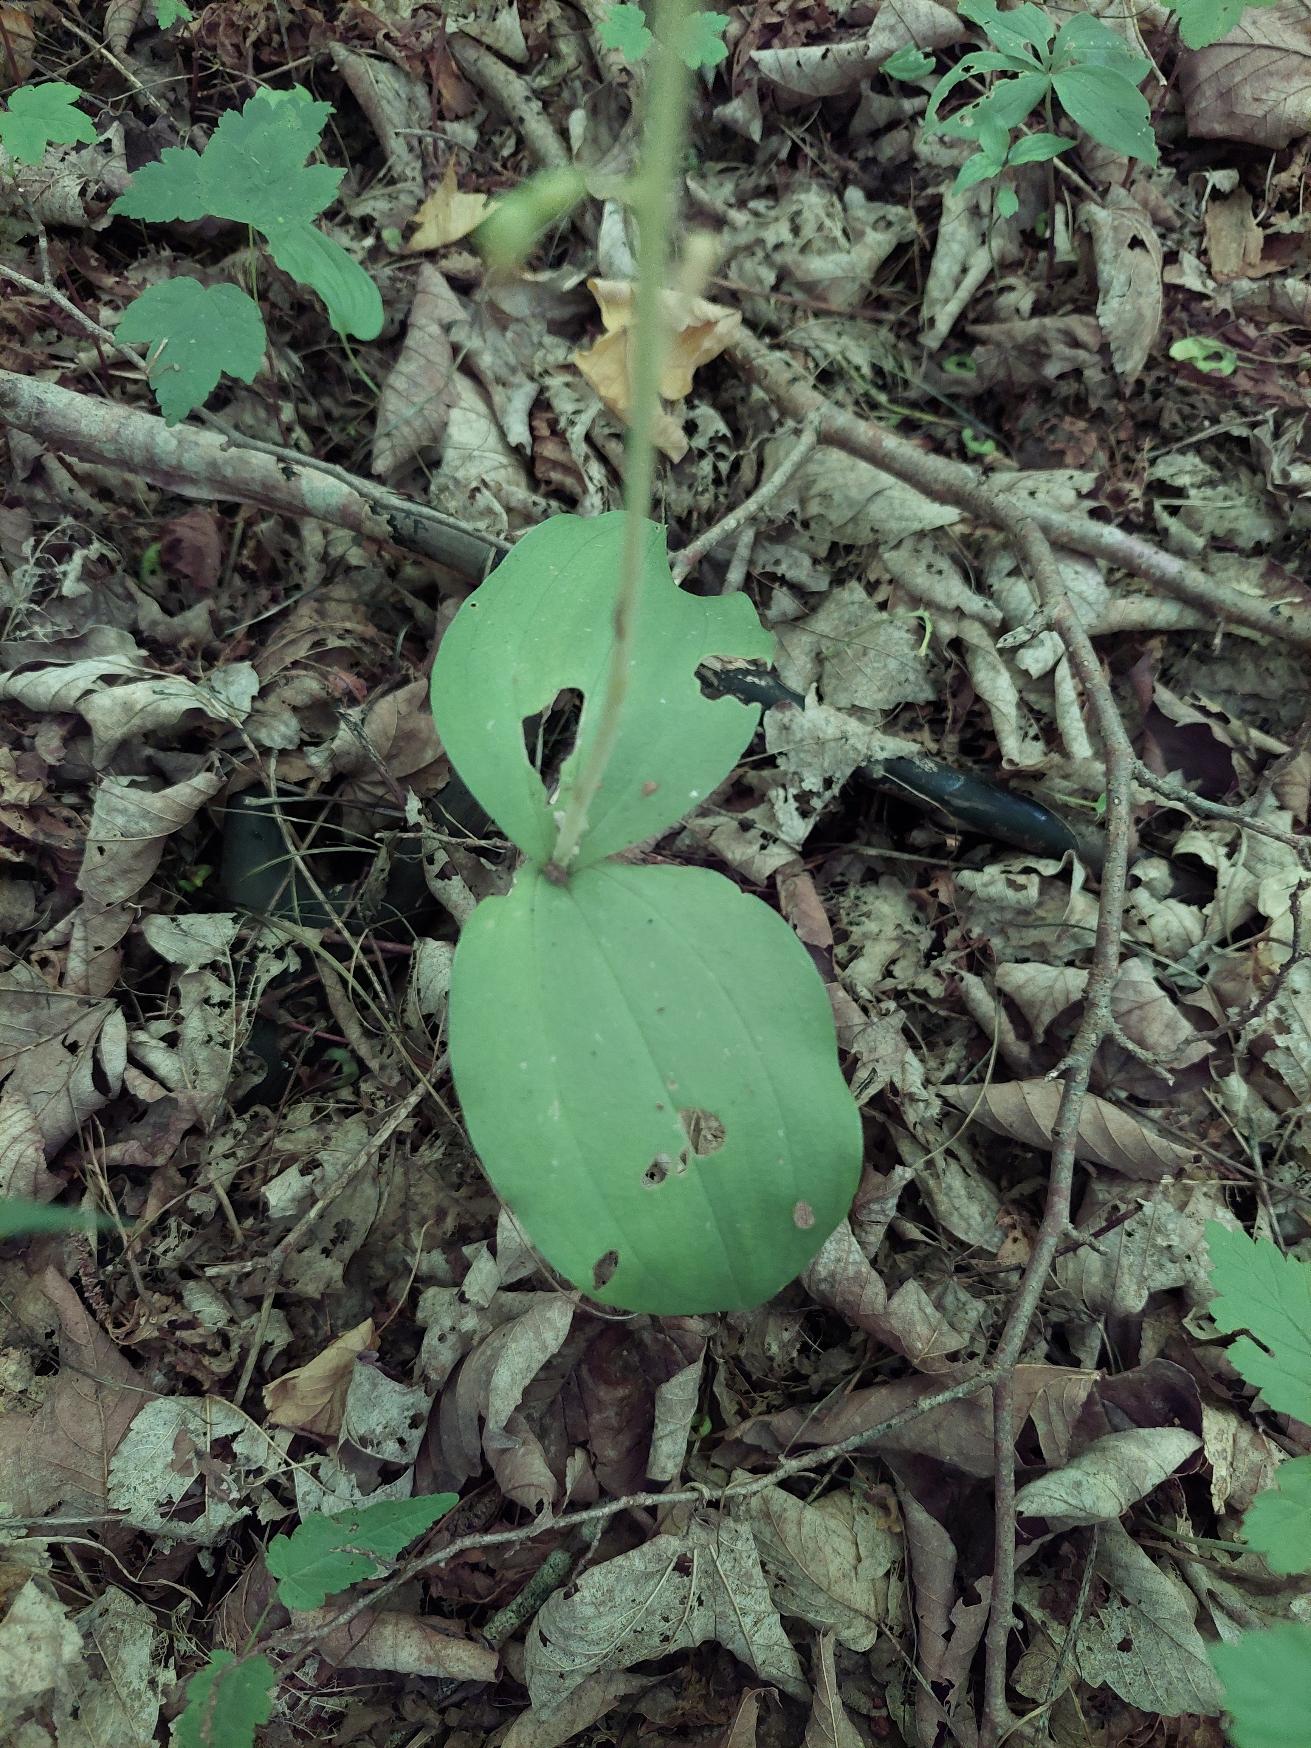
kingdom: Plantae
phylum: Tracheophyta
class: Liliopsida
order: Asparagales
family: Orchidaceae
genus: Neottia
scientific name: Neottia ovata
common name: Ægbladet fliglæbe
